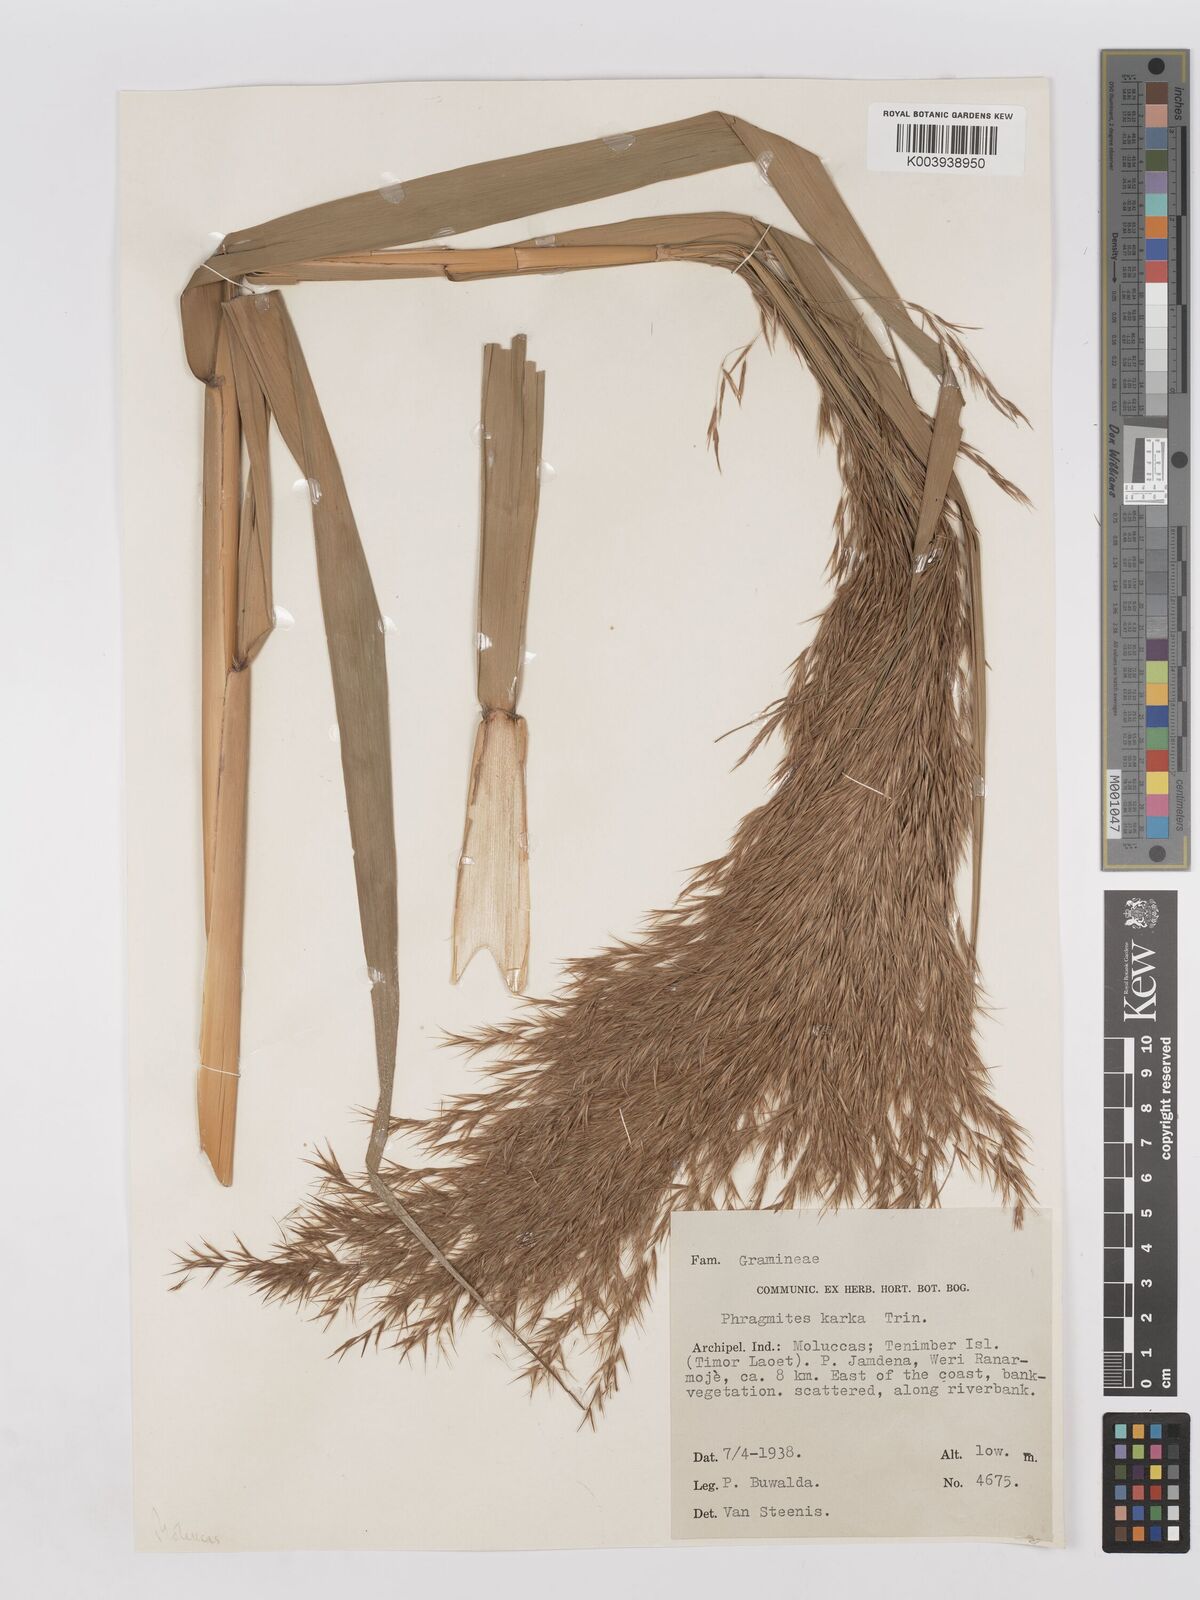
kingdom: Plantae
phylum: Tracheophyta
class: Liliopsida
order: Poales
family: Poaceae
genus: Phragmites
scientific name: Phragmites karka
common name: Tropical reed
